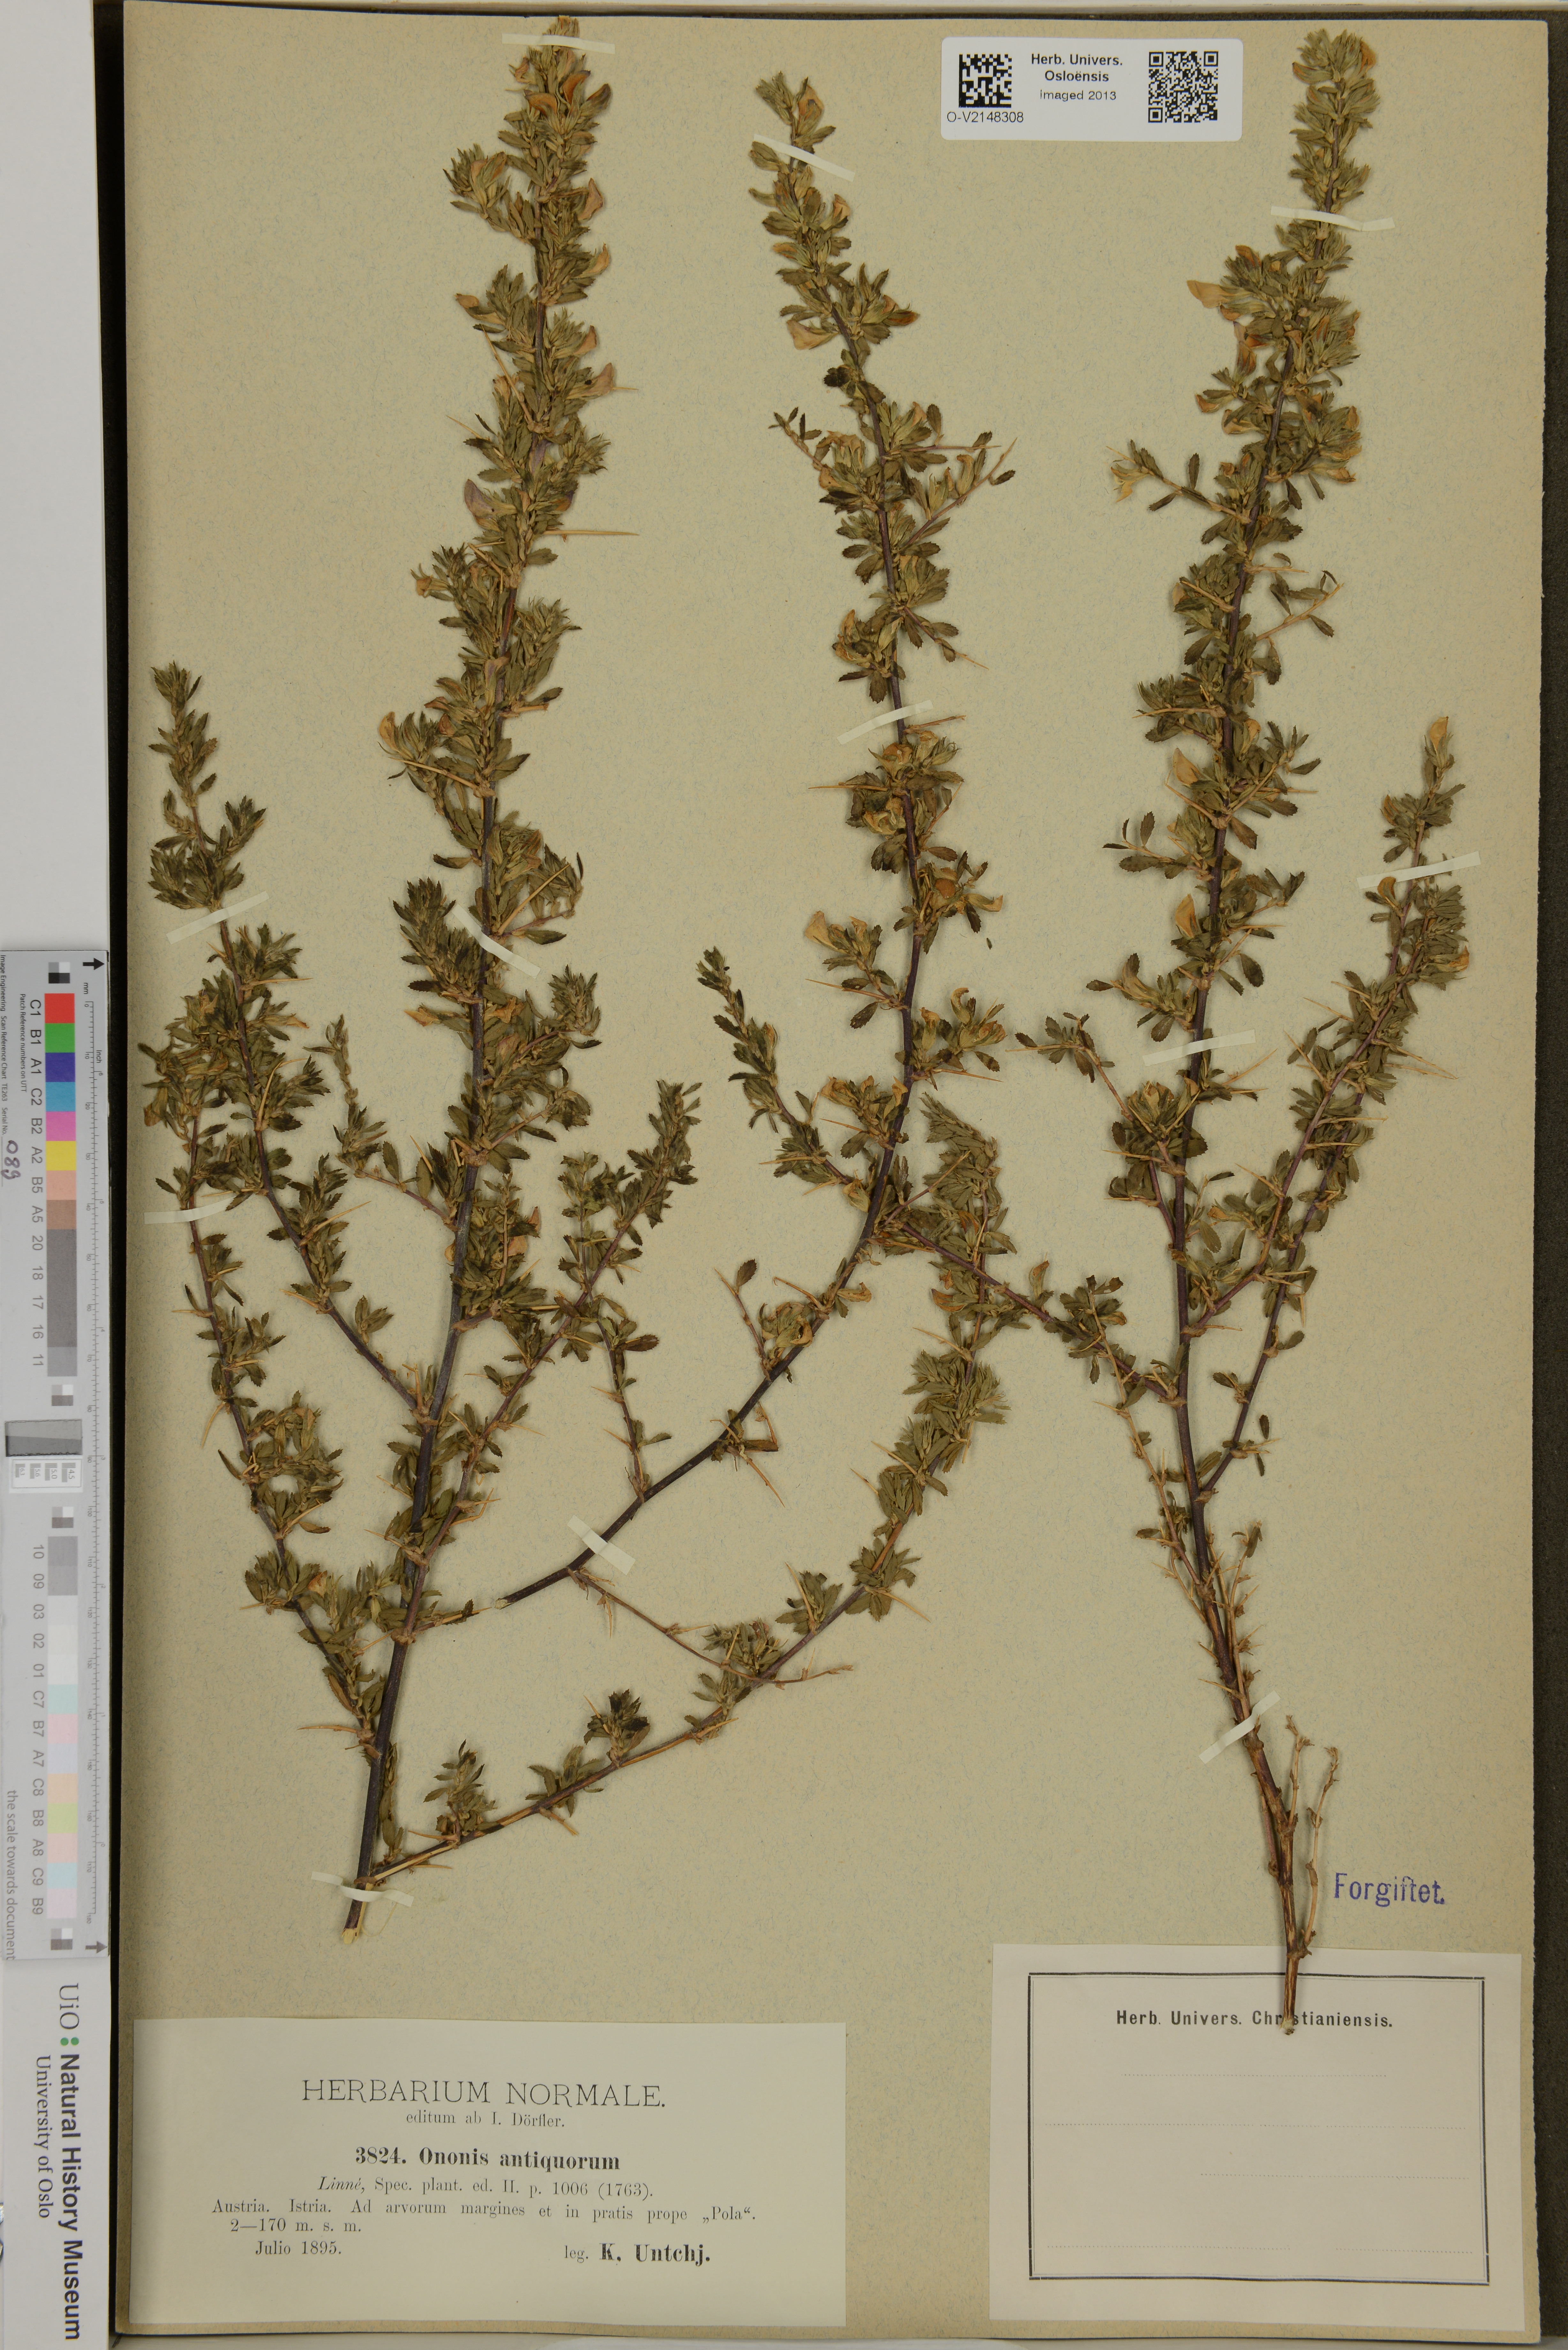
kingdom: Plantae
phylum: Tracheophyta
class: Magnoliopsida
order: Fabales
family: Fabaceae
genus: Ononis
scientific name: Ononis antiquorum
